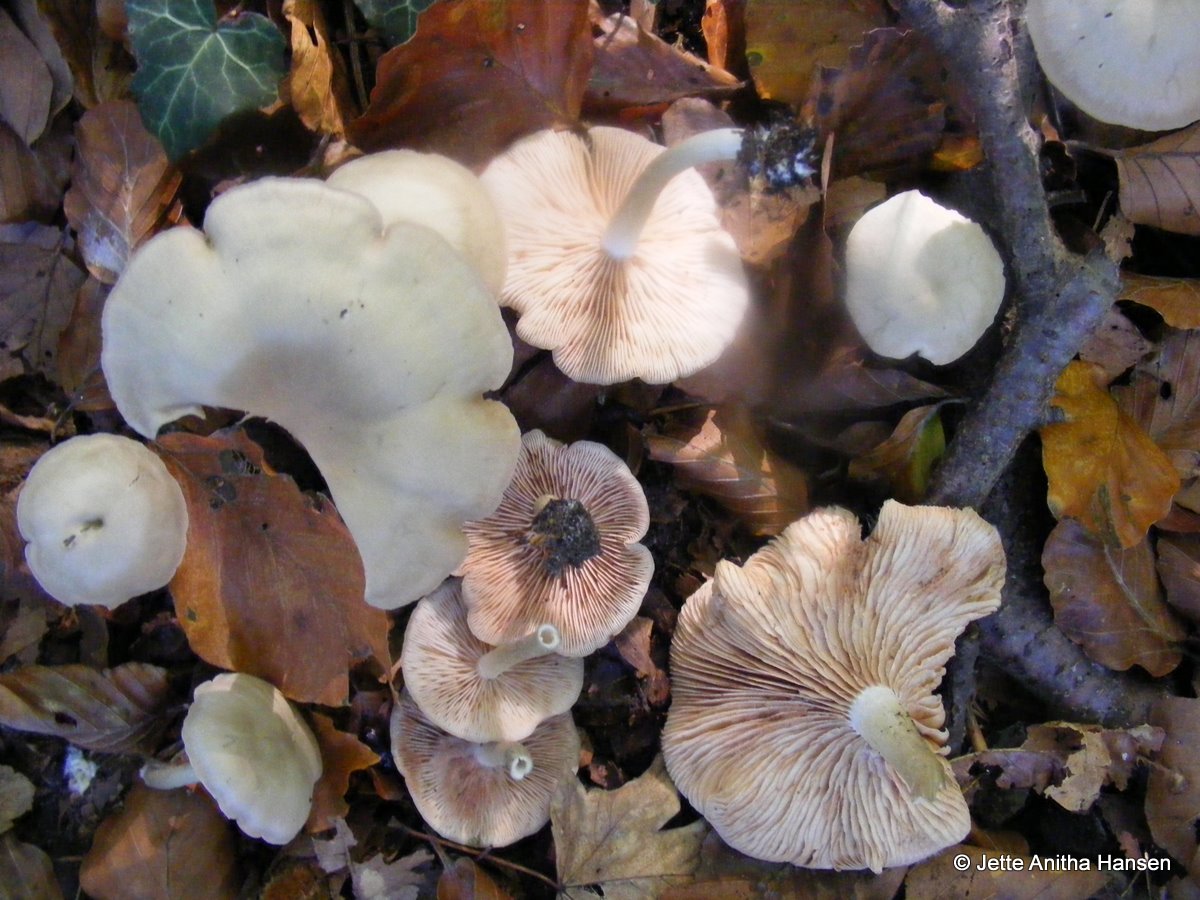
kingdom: Fungi
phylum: Basidiomycota
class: Agaricomycetes
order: Agaricales
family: Entolomataceae
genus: Entoloma
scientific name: Entoloma rhodopolium
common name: skov-rødblad
